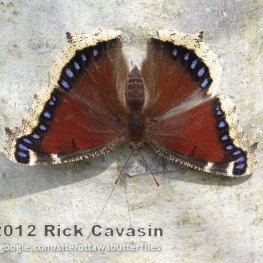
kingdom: Animalia
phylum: Arthropoda
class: Insecta
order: Lepidoptera
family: Nymphalidae
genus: Nymphalis
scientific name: Nymphalis antiopa
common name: Mourning Cloak
